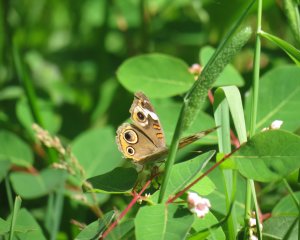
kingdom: Animalia
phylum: Arthropoda
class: Insecta
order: Lepidoptera
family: Nymphalidae
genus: Junonia
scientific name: Junonia coenia
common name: Common Buckeye
